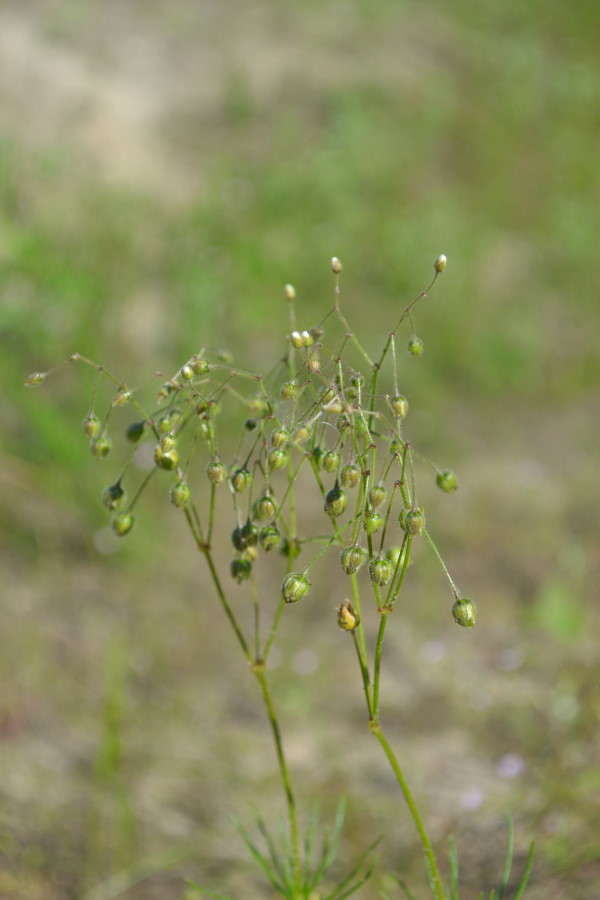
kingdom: Plantae
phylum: Tracheophyta
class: Magnoliopsida
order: Caryophyllales
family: Caryophyllaceae
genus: Spergula
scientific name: Spergula arvensis
